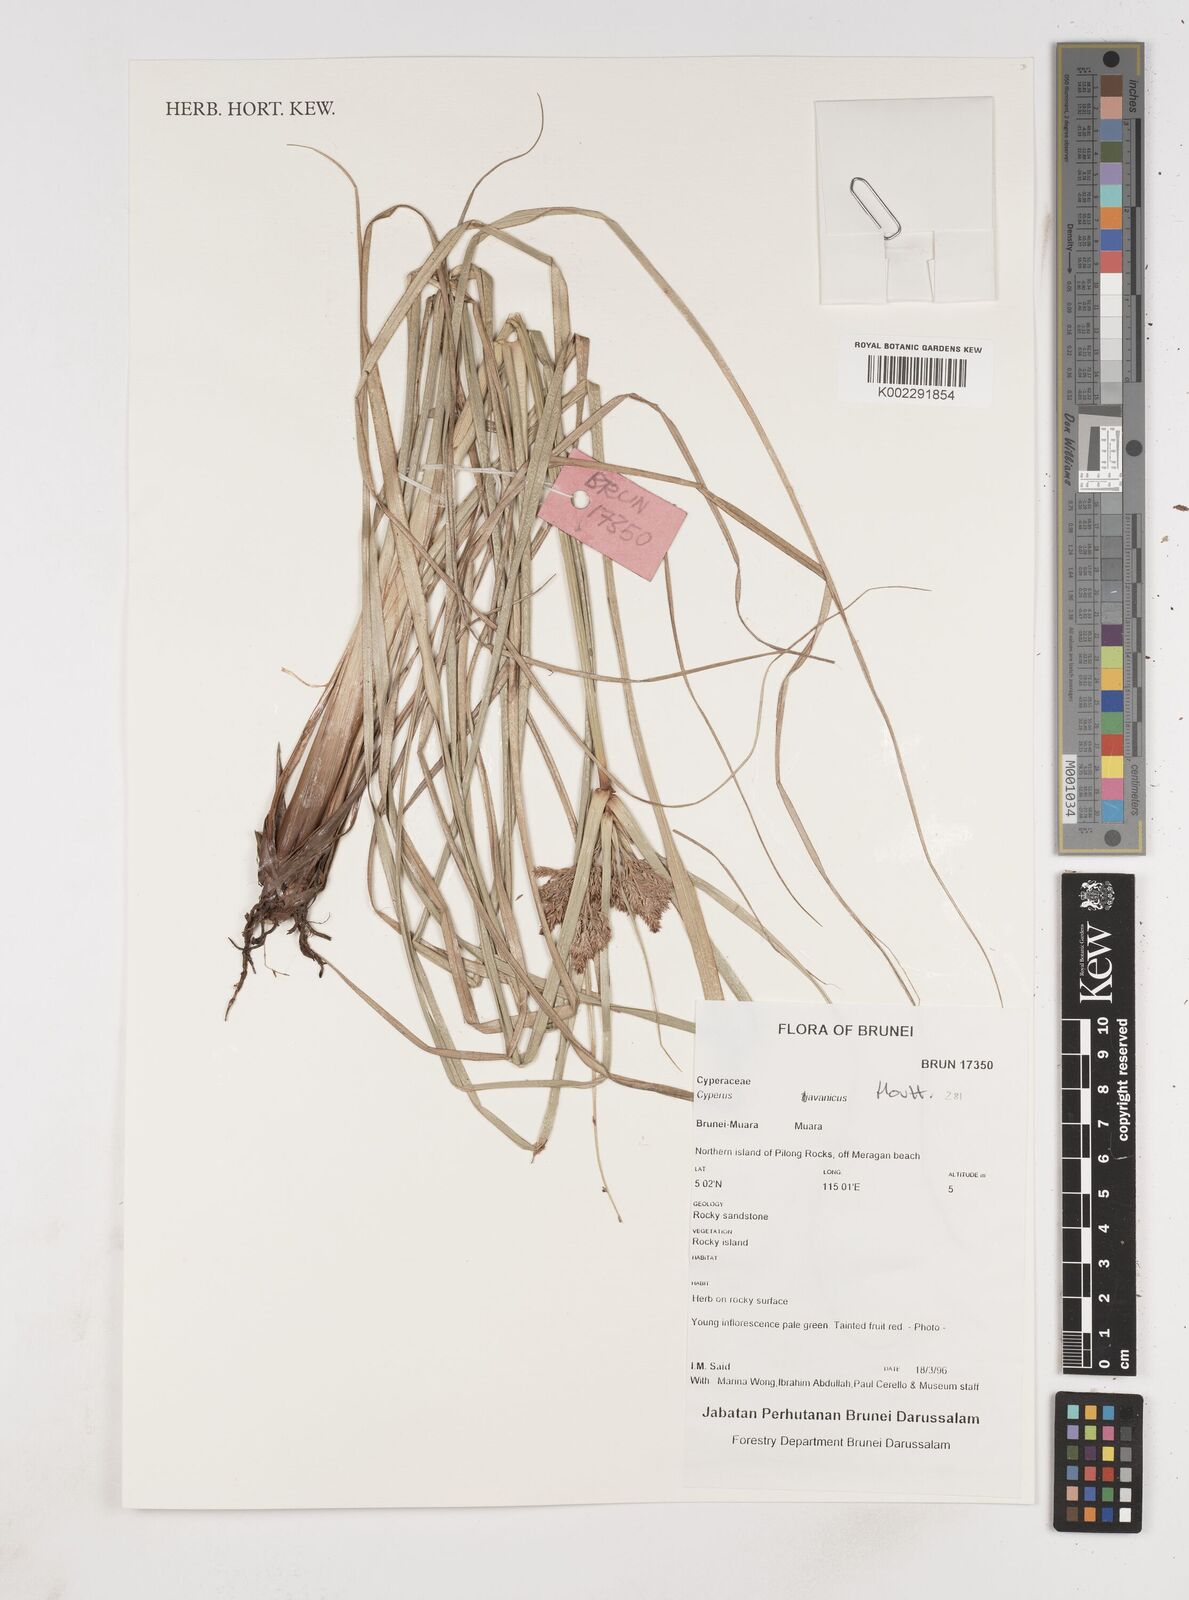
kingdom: Plantae
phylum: Tracheophyta
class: Liliopsida
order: Poales
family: Cyperaceae
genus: Cyperus
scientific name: Cyperus javanicus
